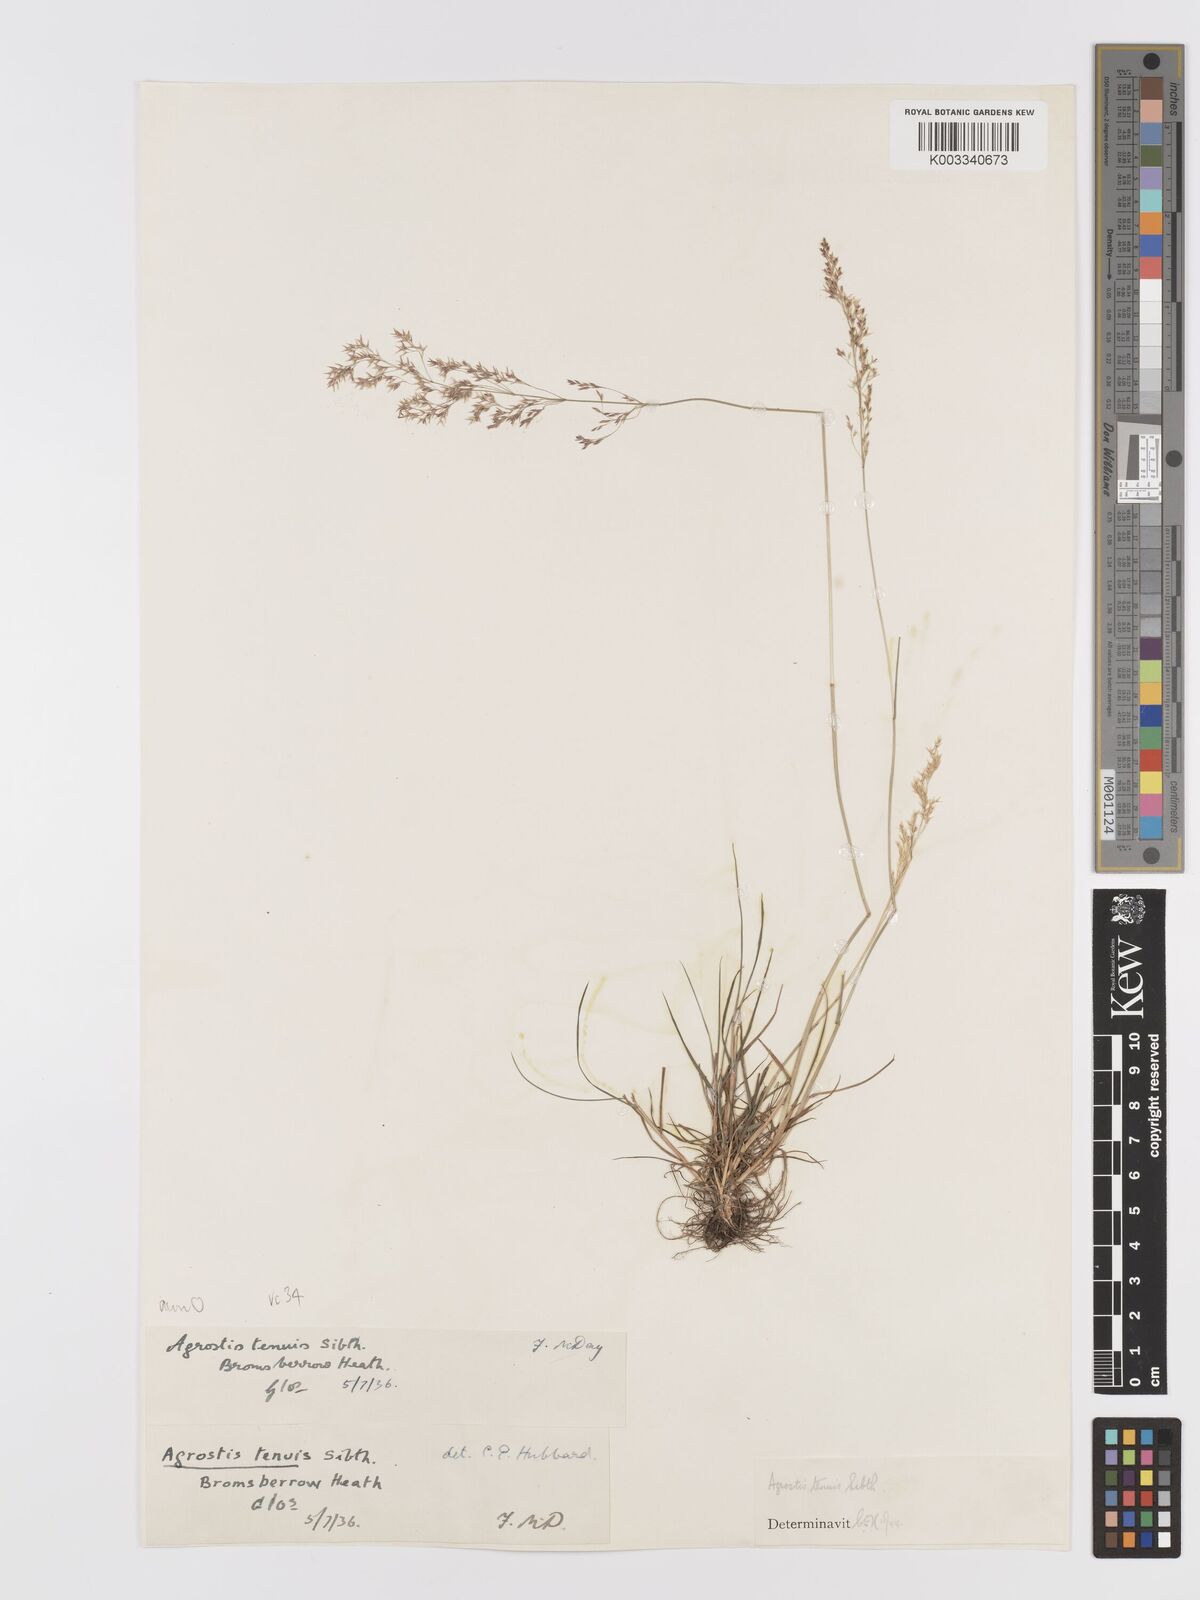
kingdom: Plantae
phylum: Tracheophyta
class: Liliopsida
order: Poales
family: Poaceae
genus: Agrostis
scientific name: Agrostis capillaris
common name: Colonial bentgrass
